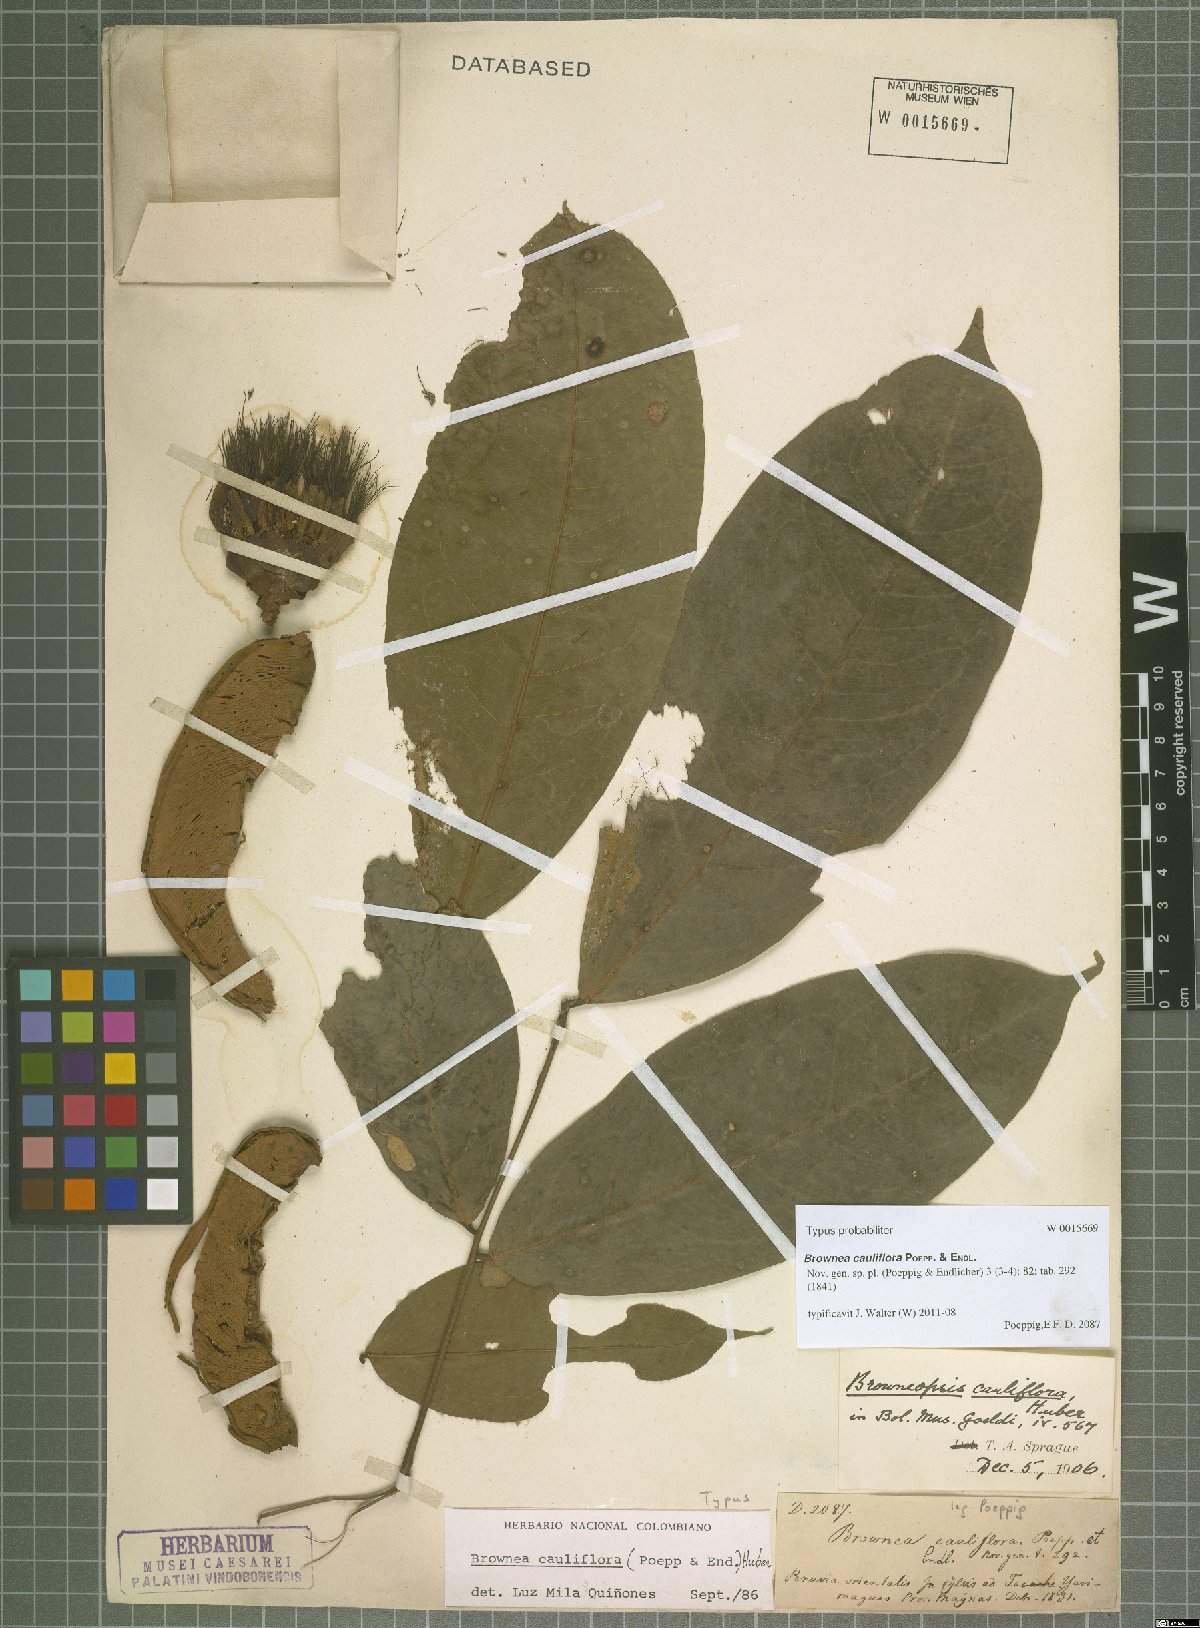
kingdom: Plantae
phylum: Tracheophyta
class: Magnoliopsida
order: Fabales
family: Fabaceae
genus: Browneopsis
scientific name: Browneopsis cauliflora
